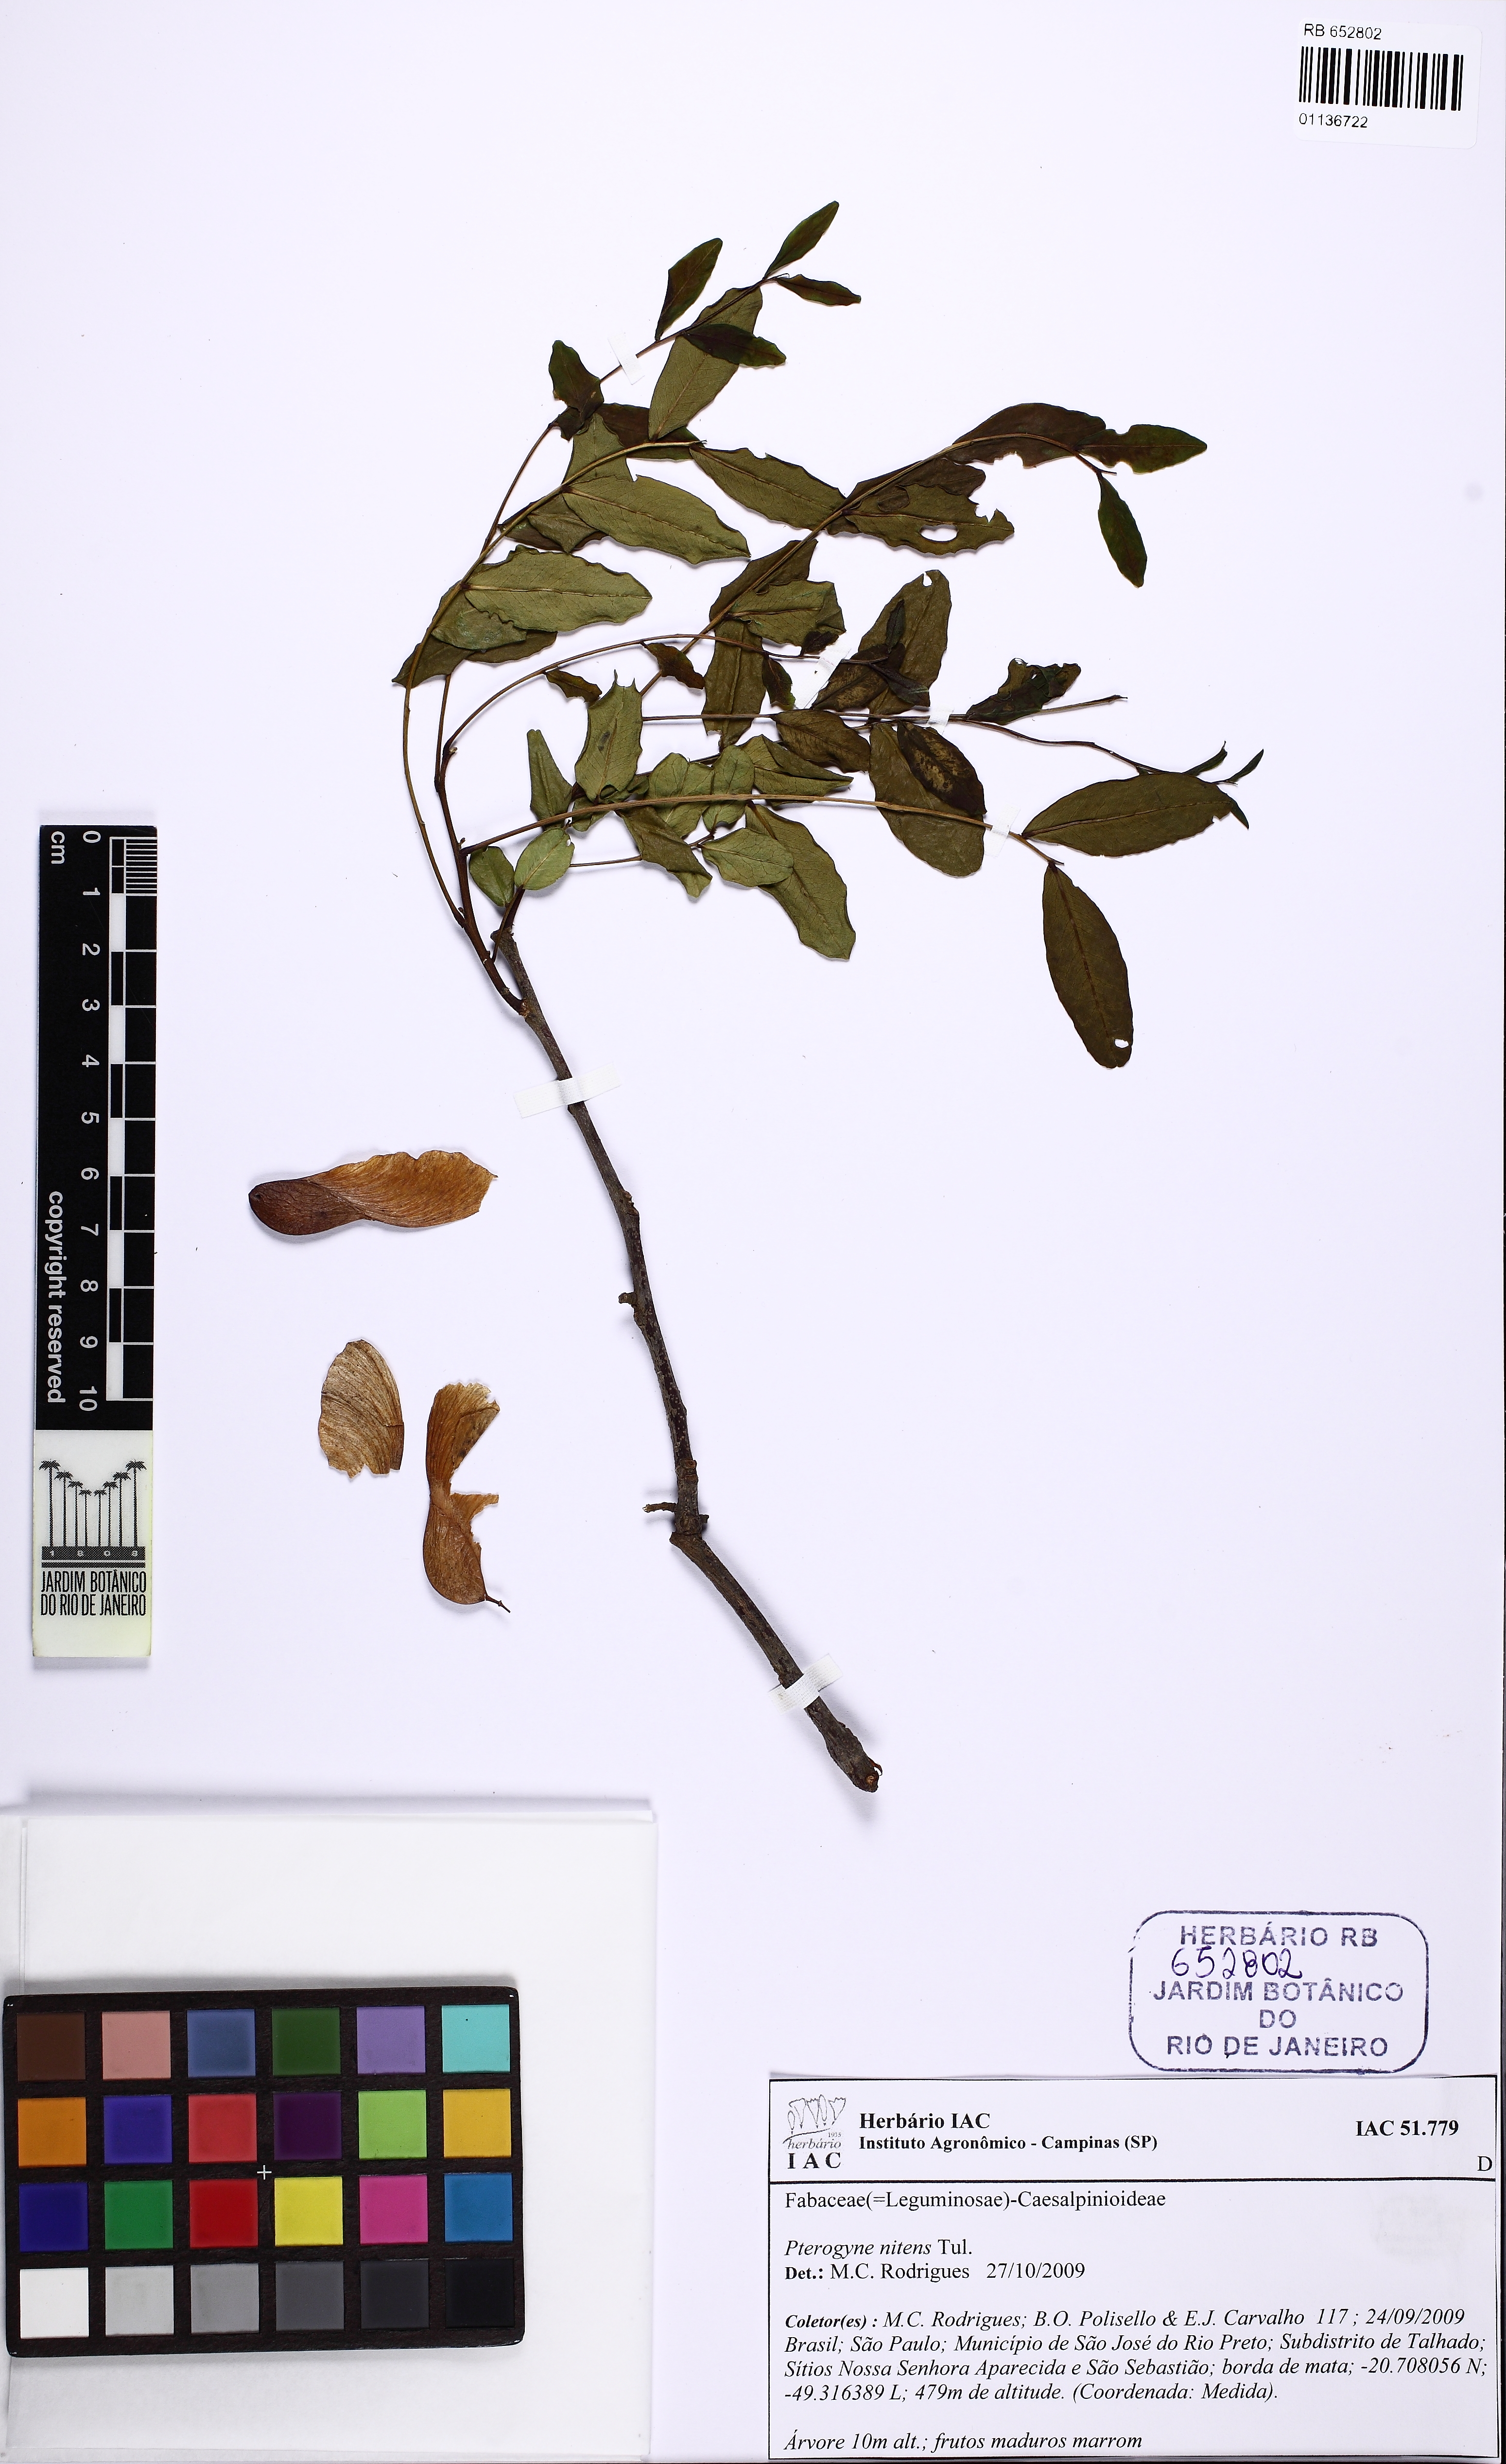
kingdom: Plantae
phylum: Tracheophyta
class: Magnoliopsida
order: Fabales
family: Fabaceae
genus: Pterogyne
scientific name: Pterogyne nitens
